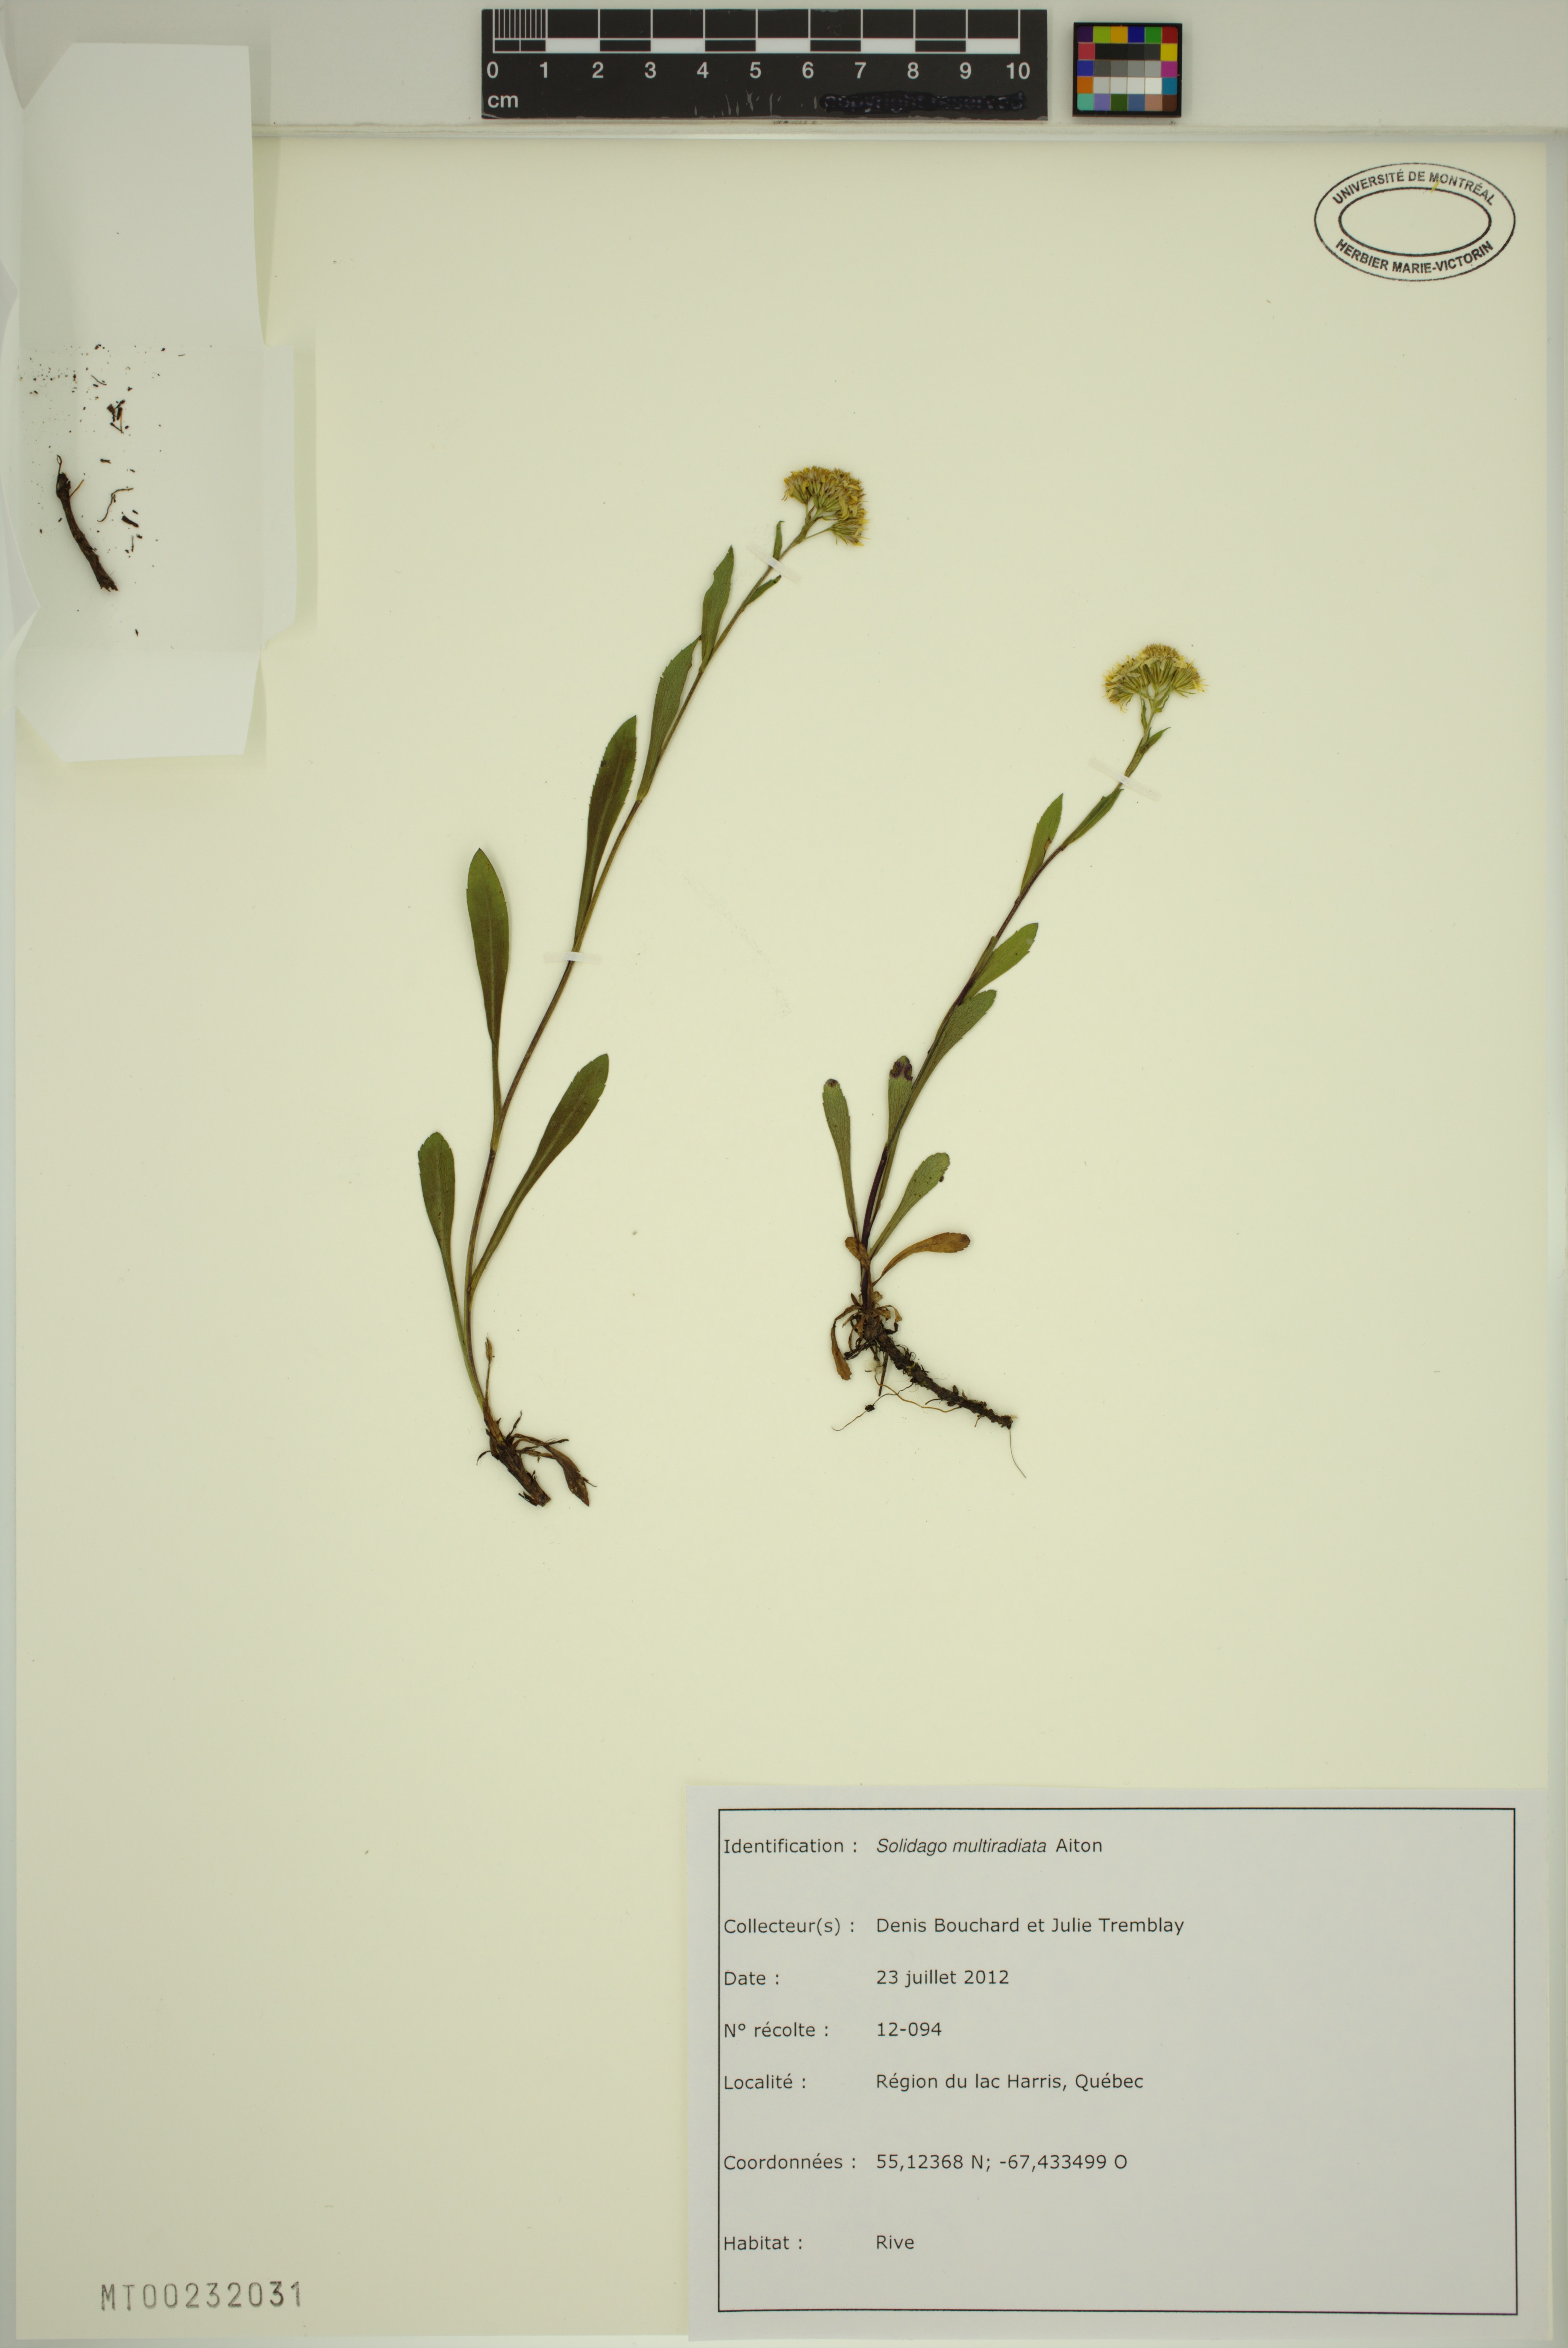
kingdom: Plantae
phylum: Tracheophyta
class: Magnoliopsida
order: Asterales
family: Asteraceae
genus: Solidago
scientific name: Solidago multiradiata
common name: Northern goldenrod
